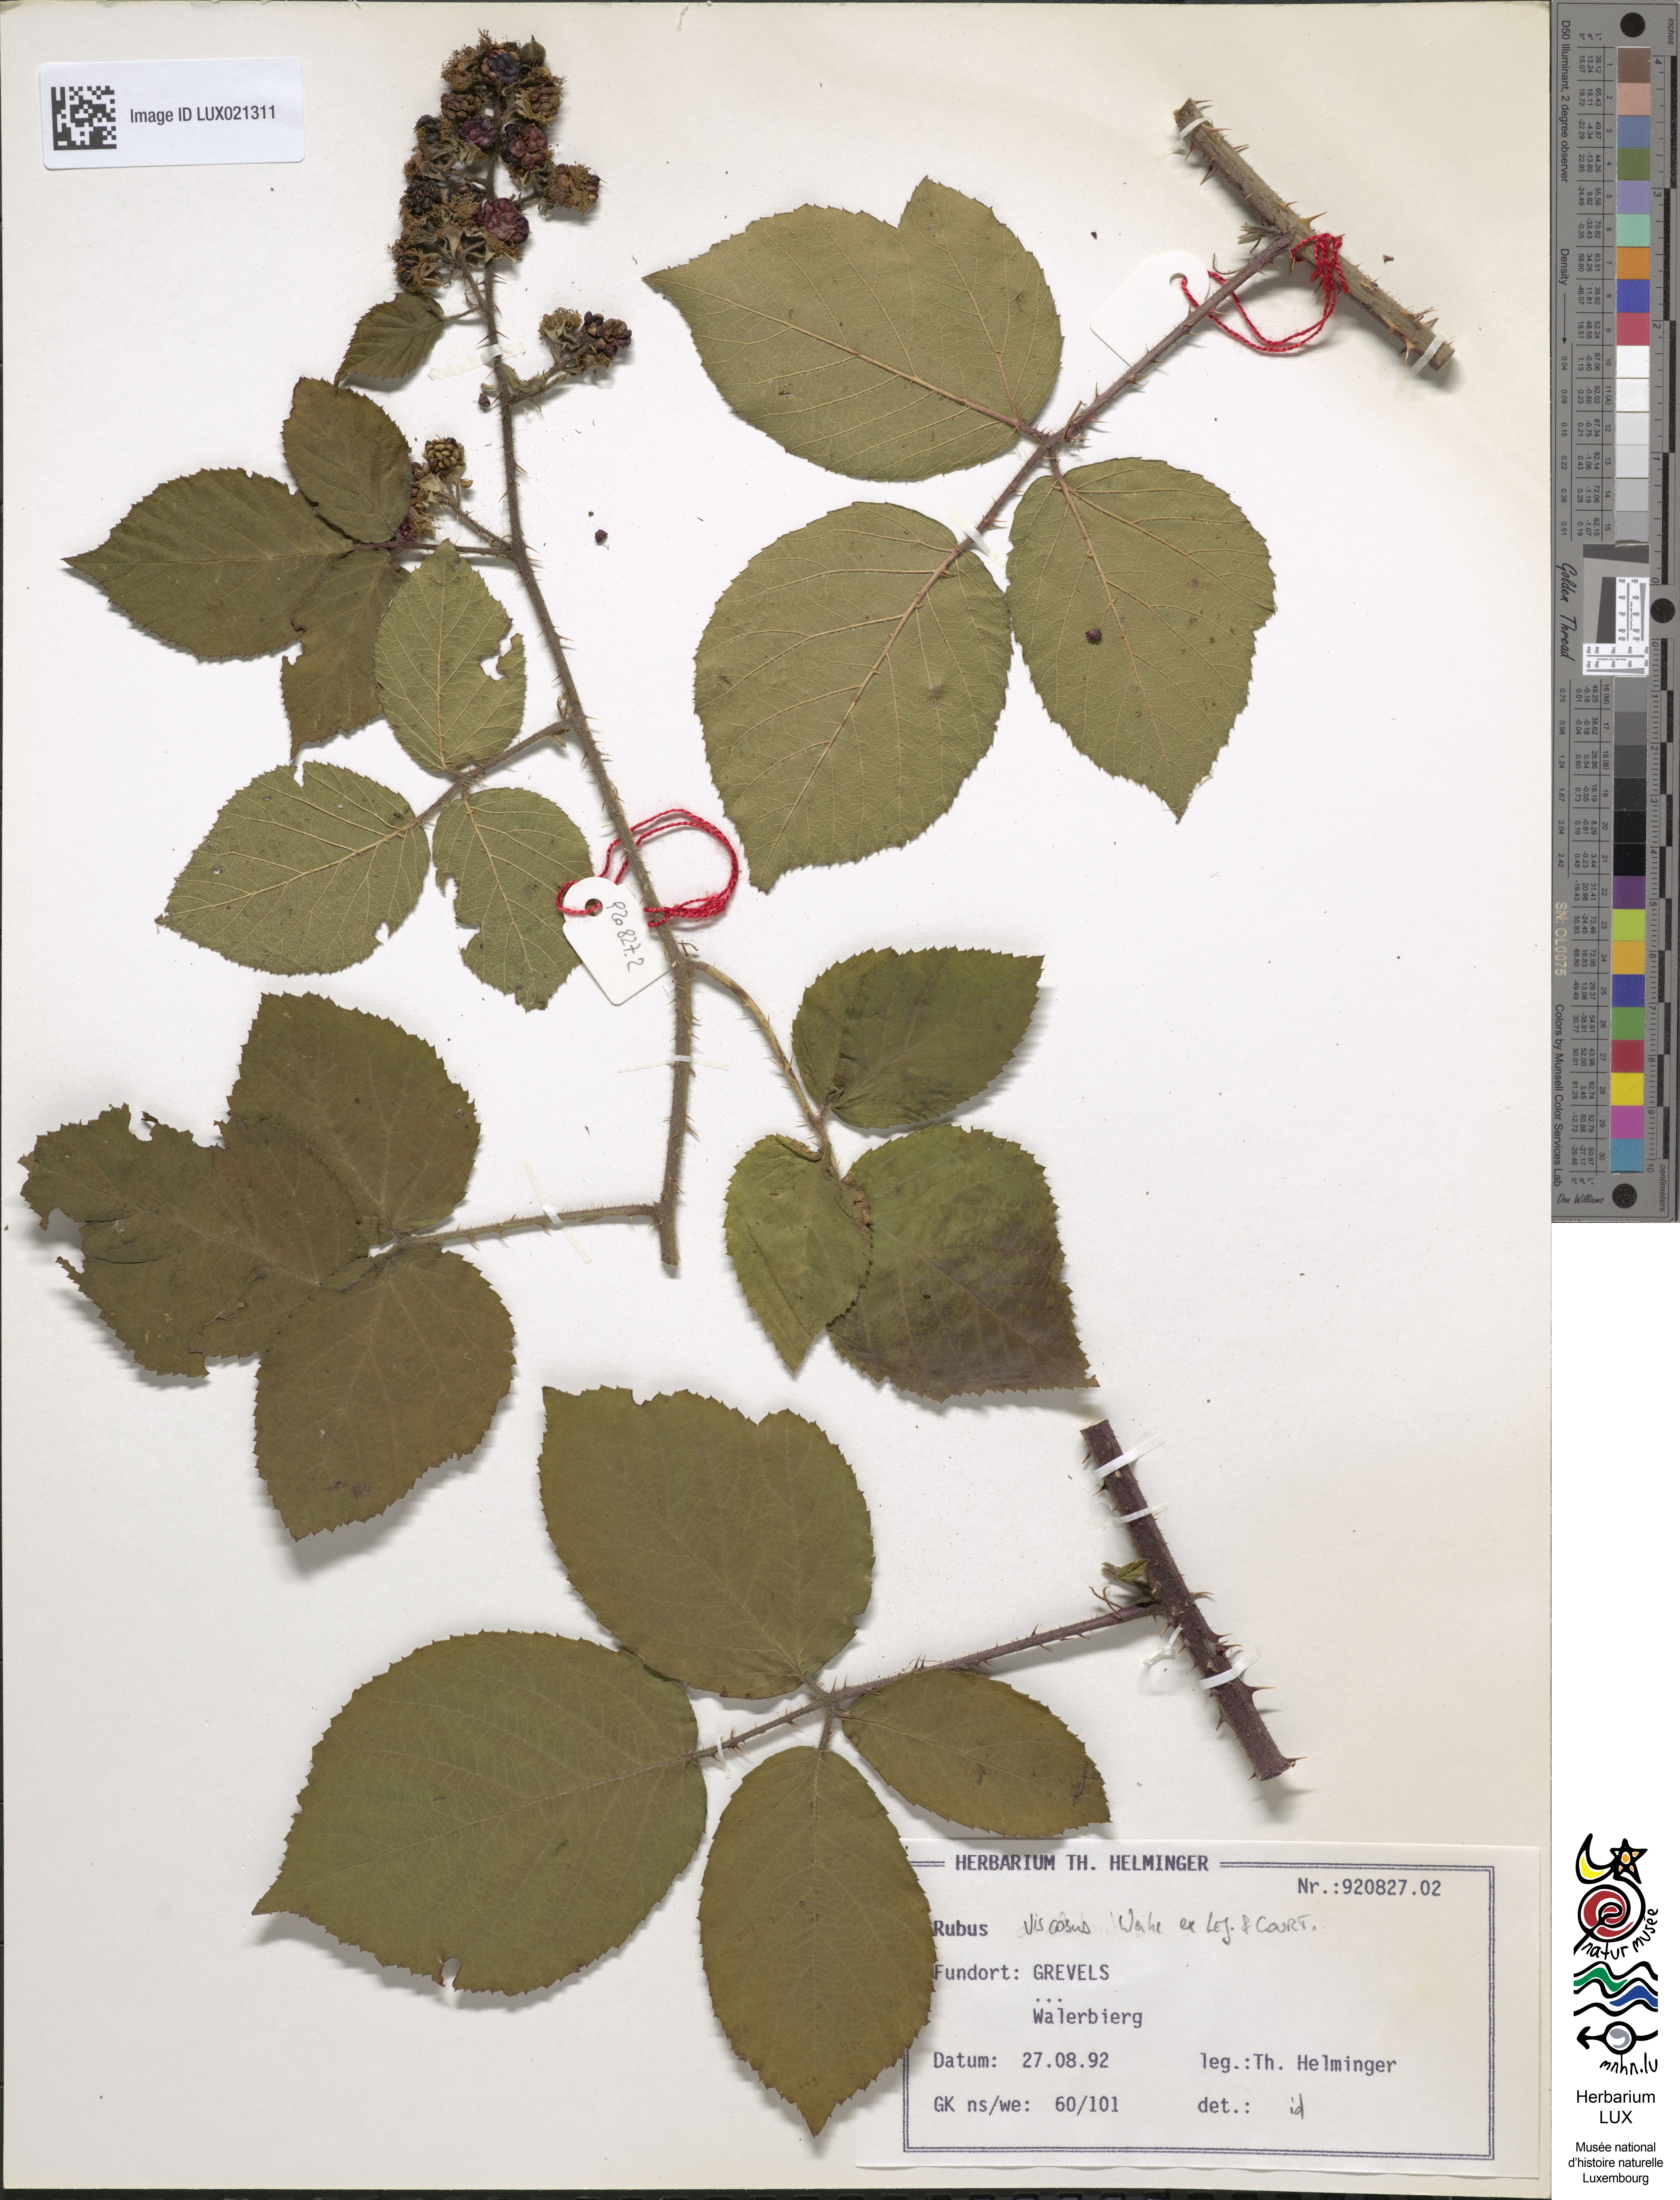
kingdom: Plantae
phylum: Tracheophyta
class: Magnoliopsida
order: Rosales
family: Rosaceae
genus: Rubus
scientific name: Rubus viscosus
